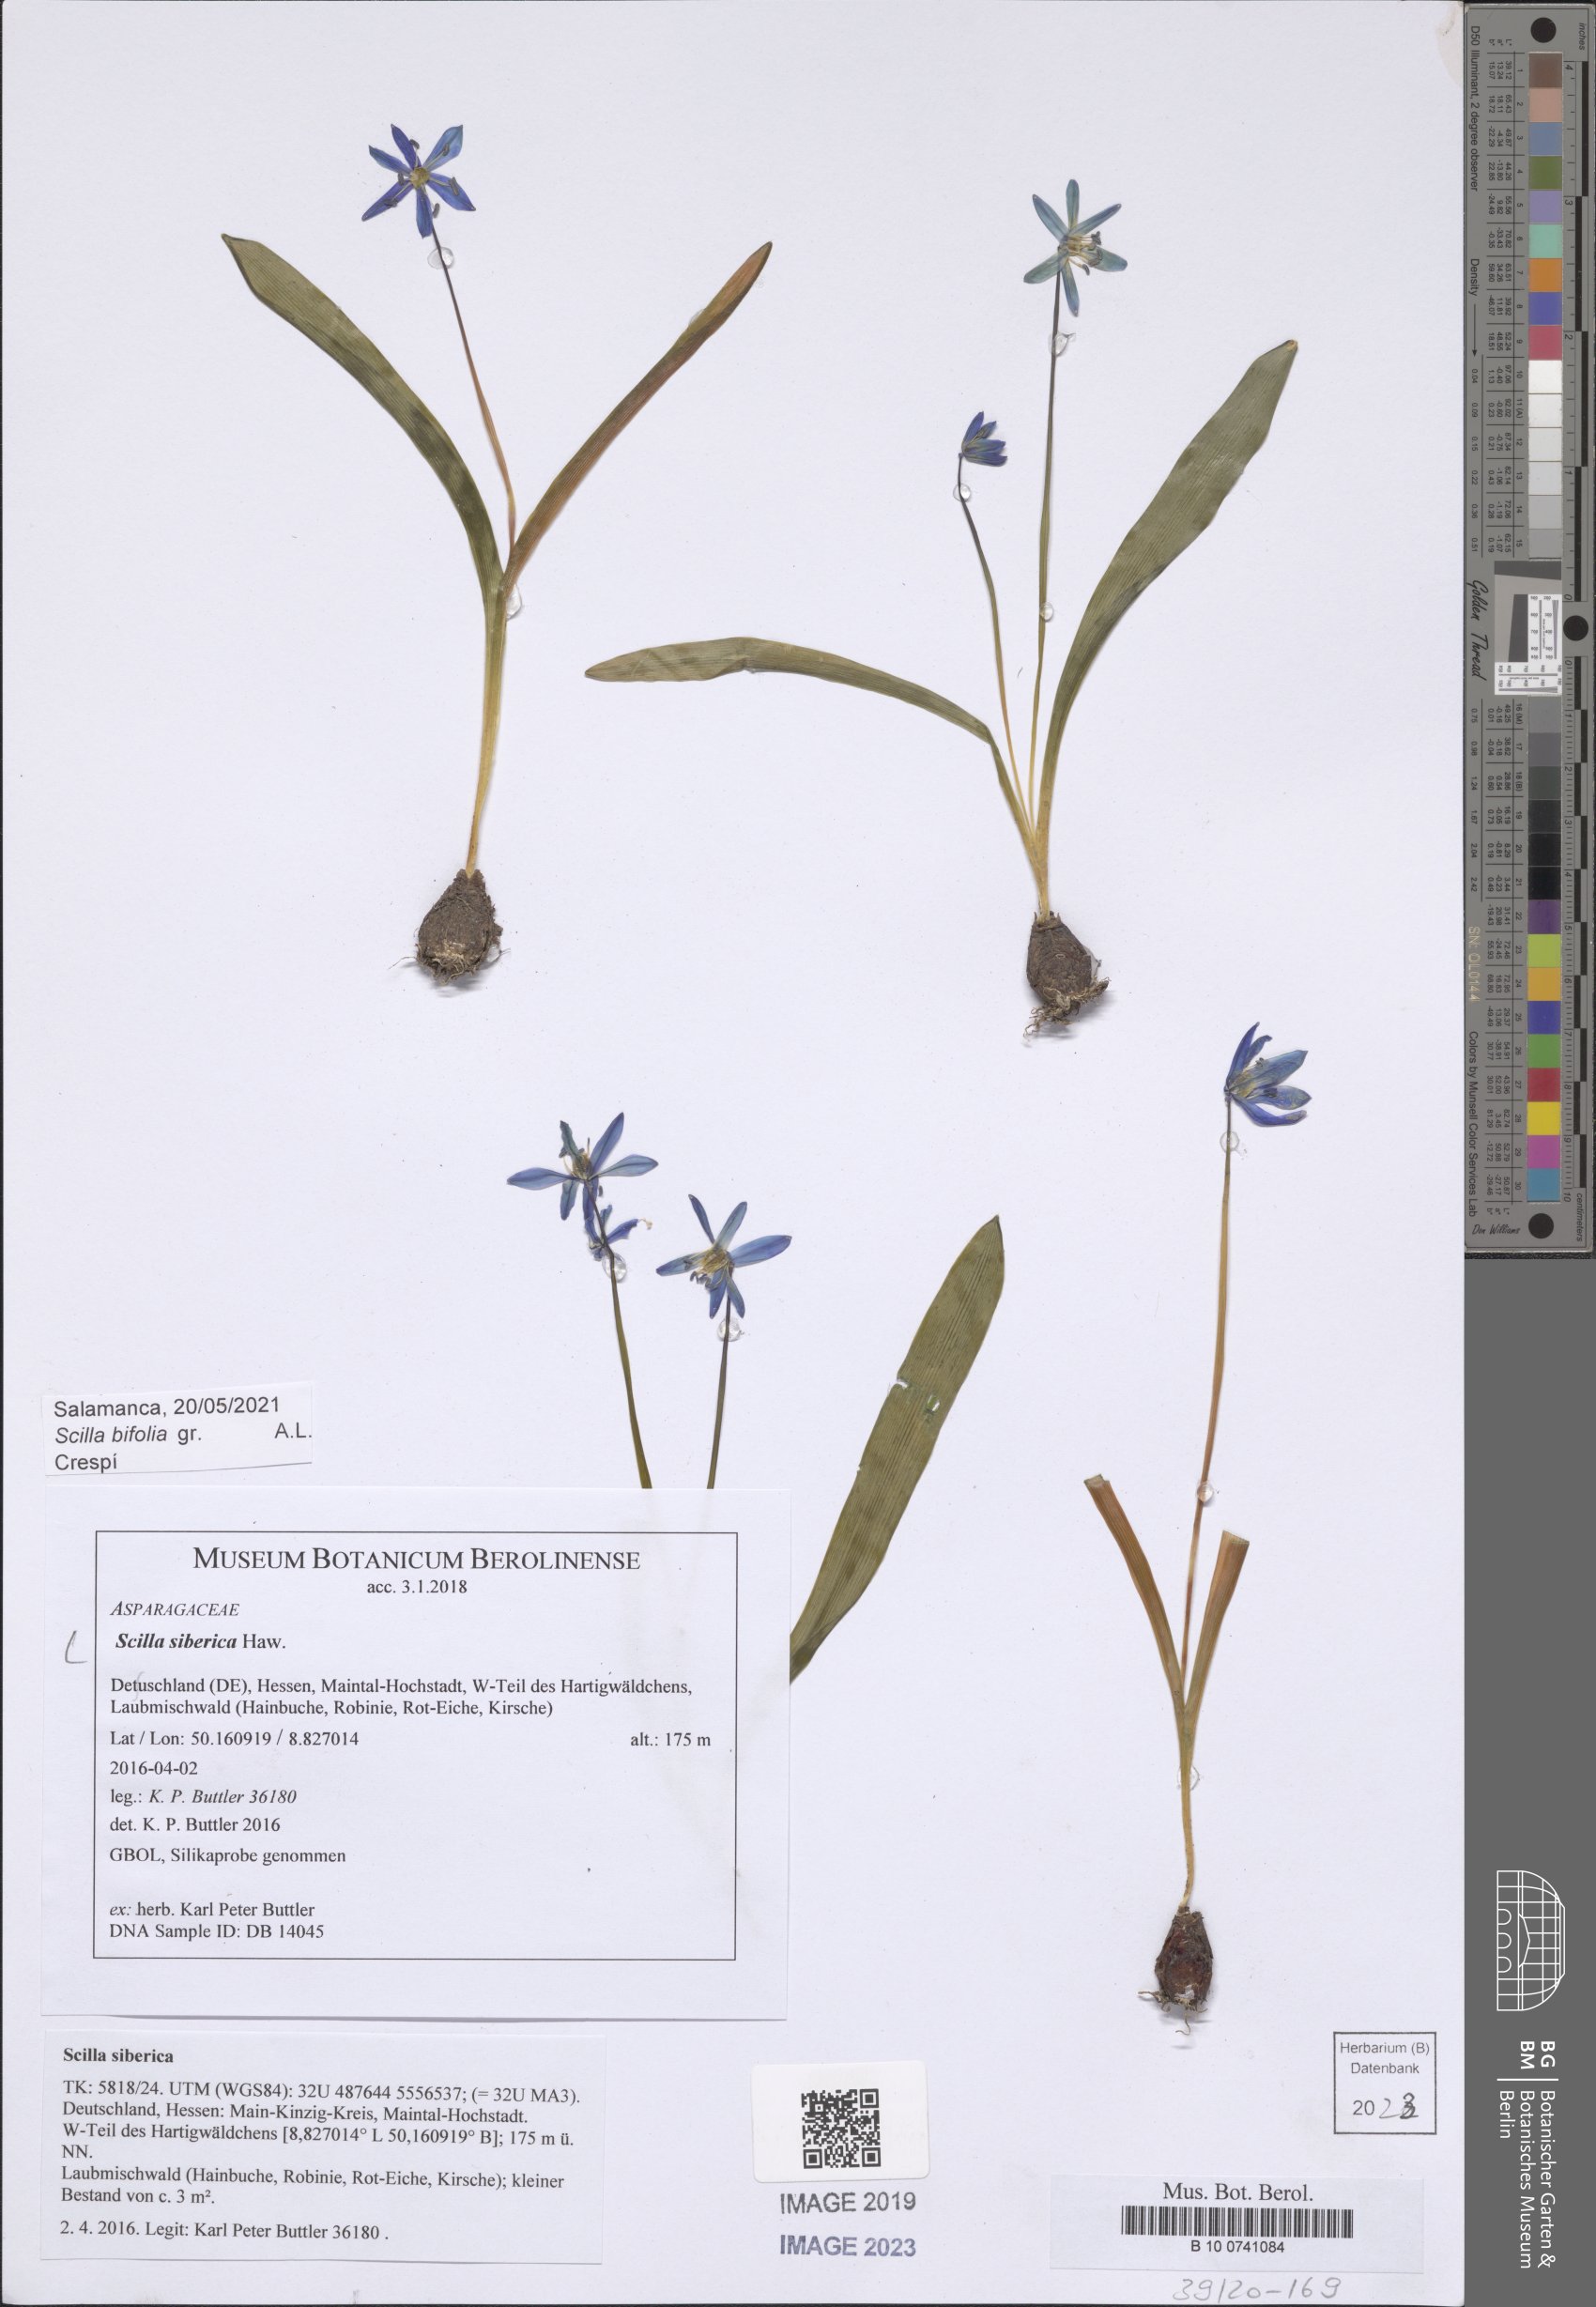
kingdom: Plantae
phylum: Tracheophyta
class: Liliopsida
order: Asparagales
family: Asparagaceae
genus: Scilla
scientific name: Scilla siberica
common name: Siberian squill
